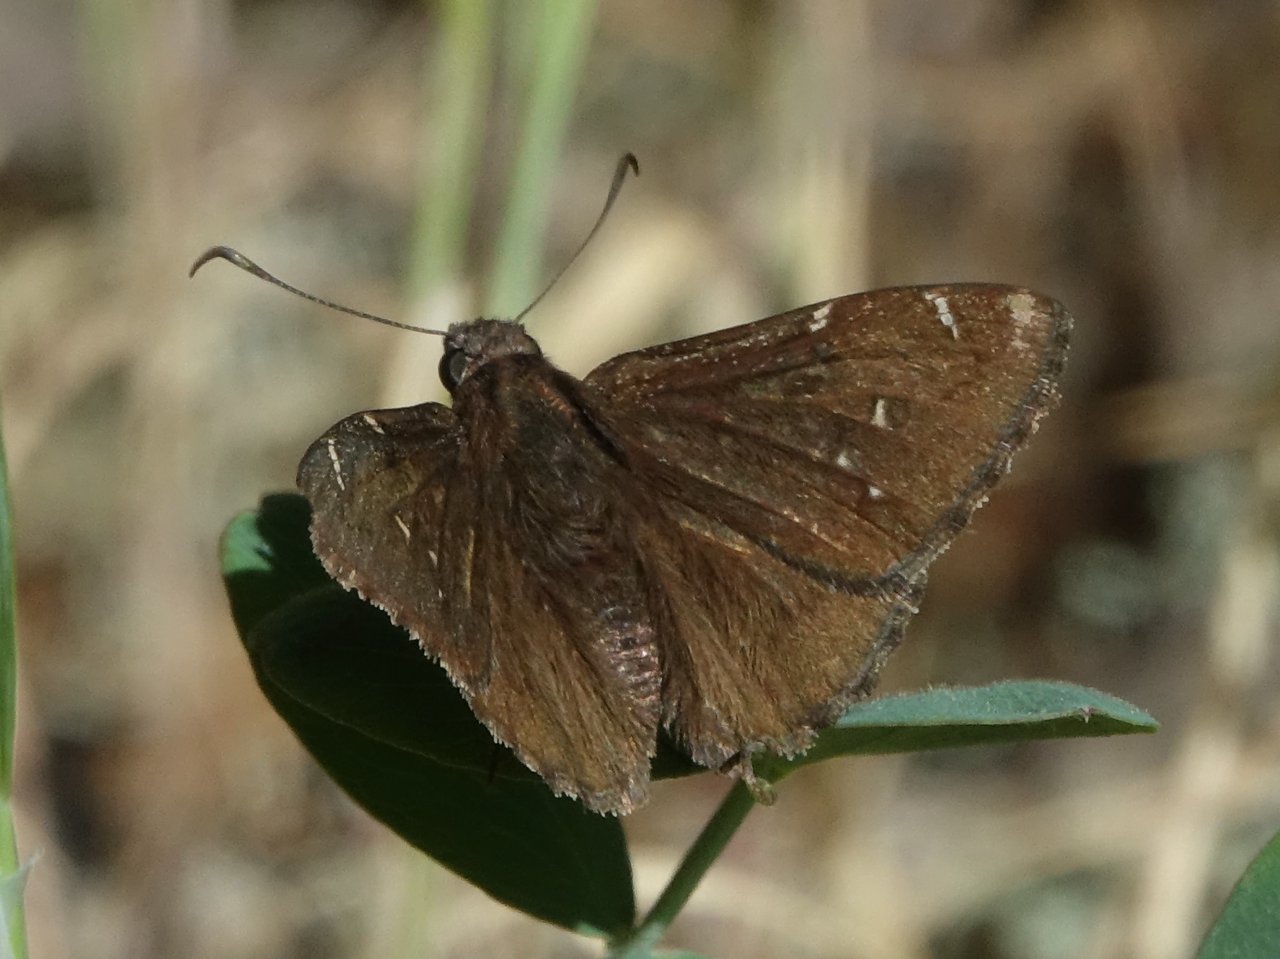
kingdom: Animalia
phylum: Arthropoda
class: Insecta
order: Lepidoptera
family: Hesperiidae
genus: Autochton
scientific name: Autochton
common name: Northern Cloudywing
